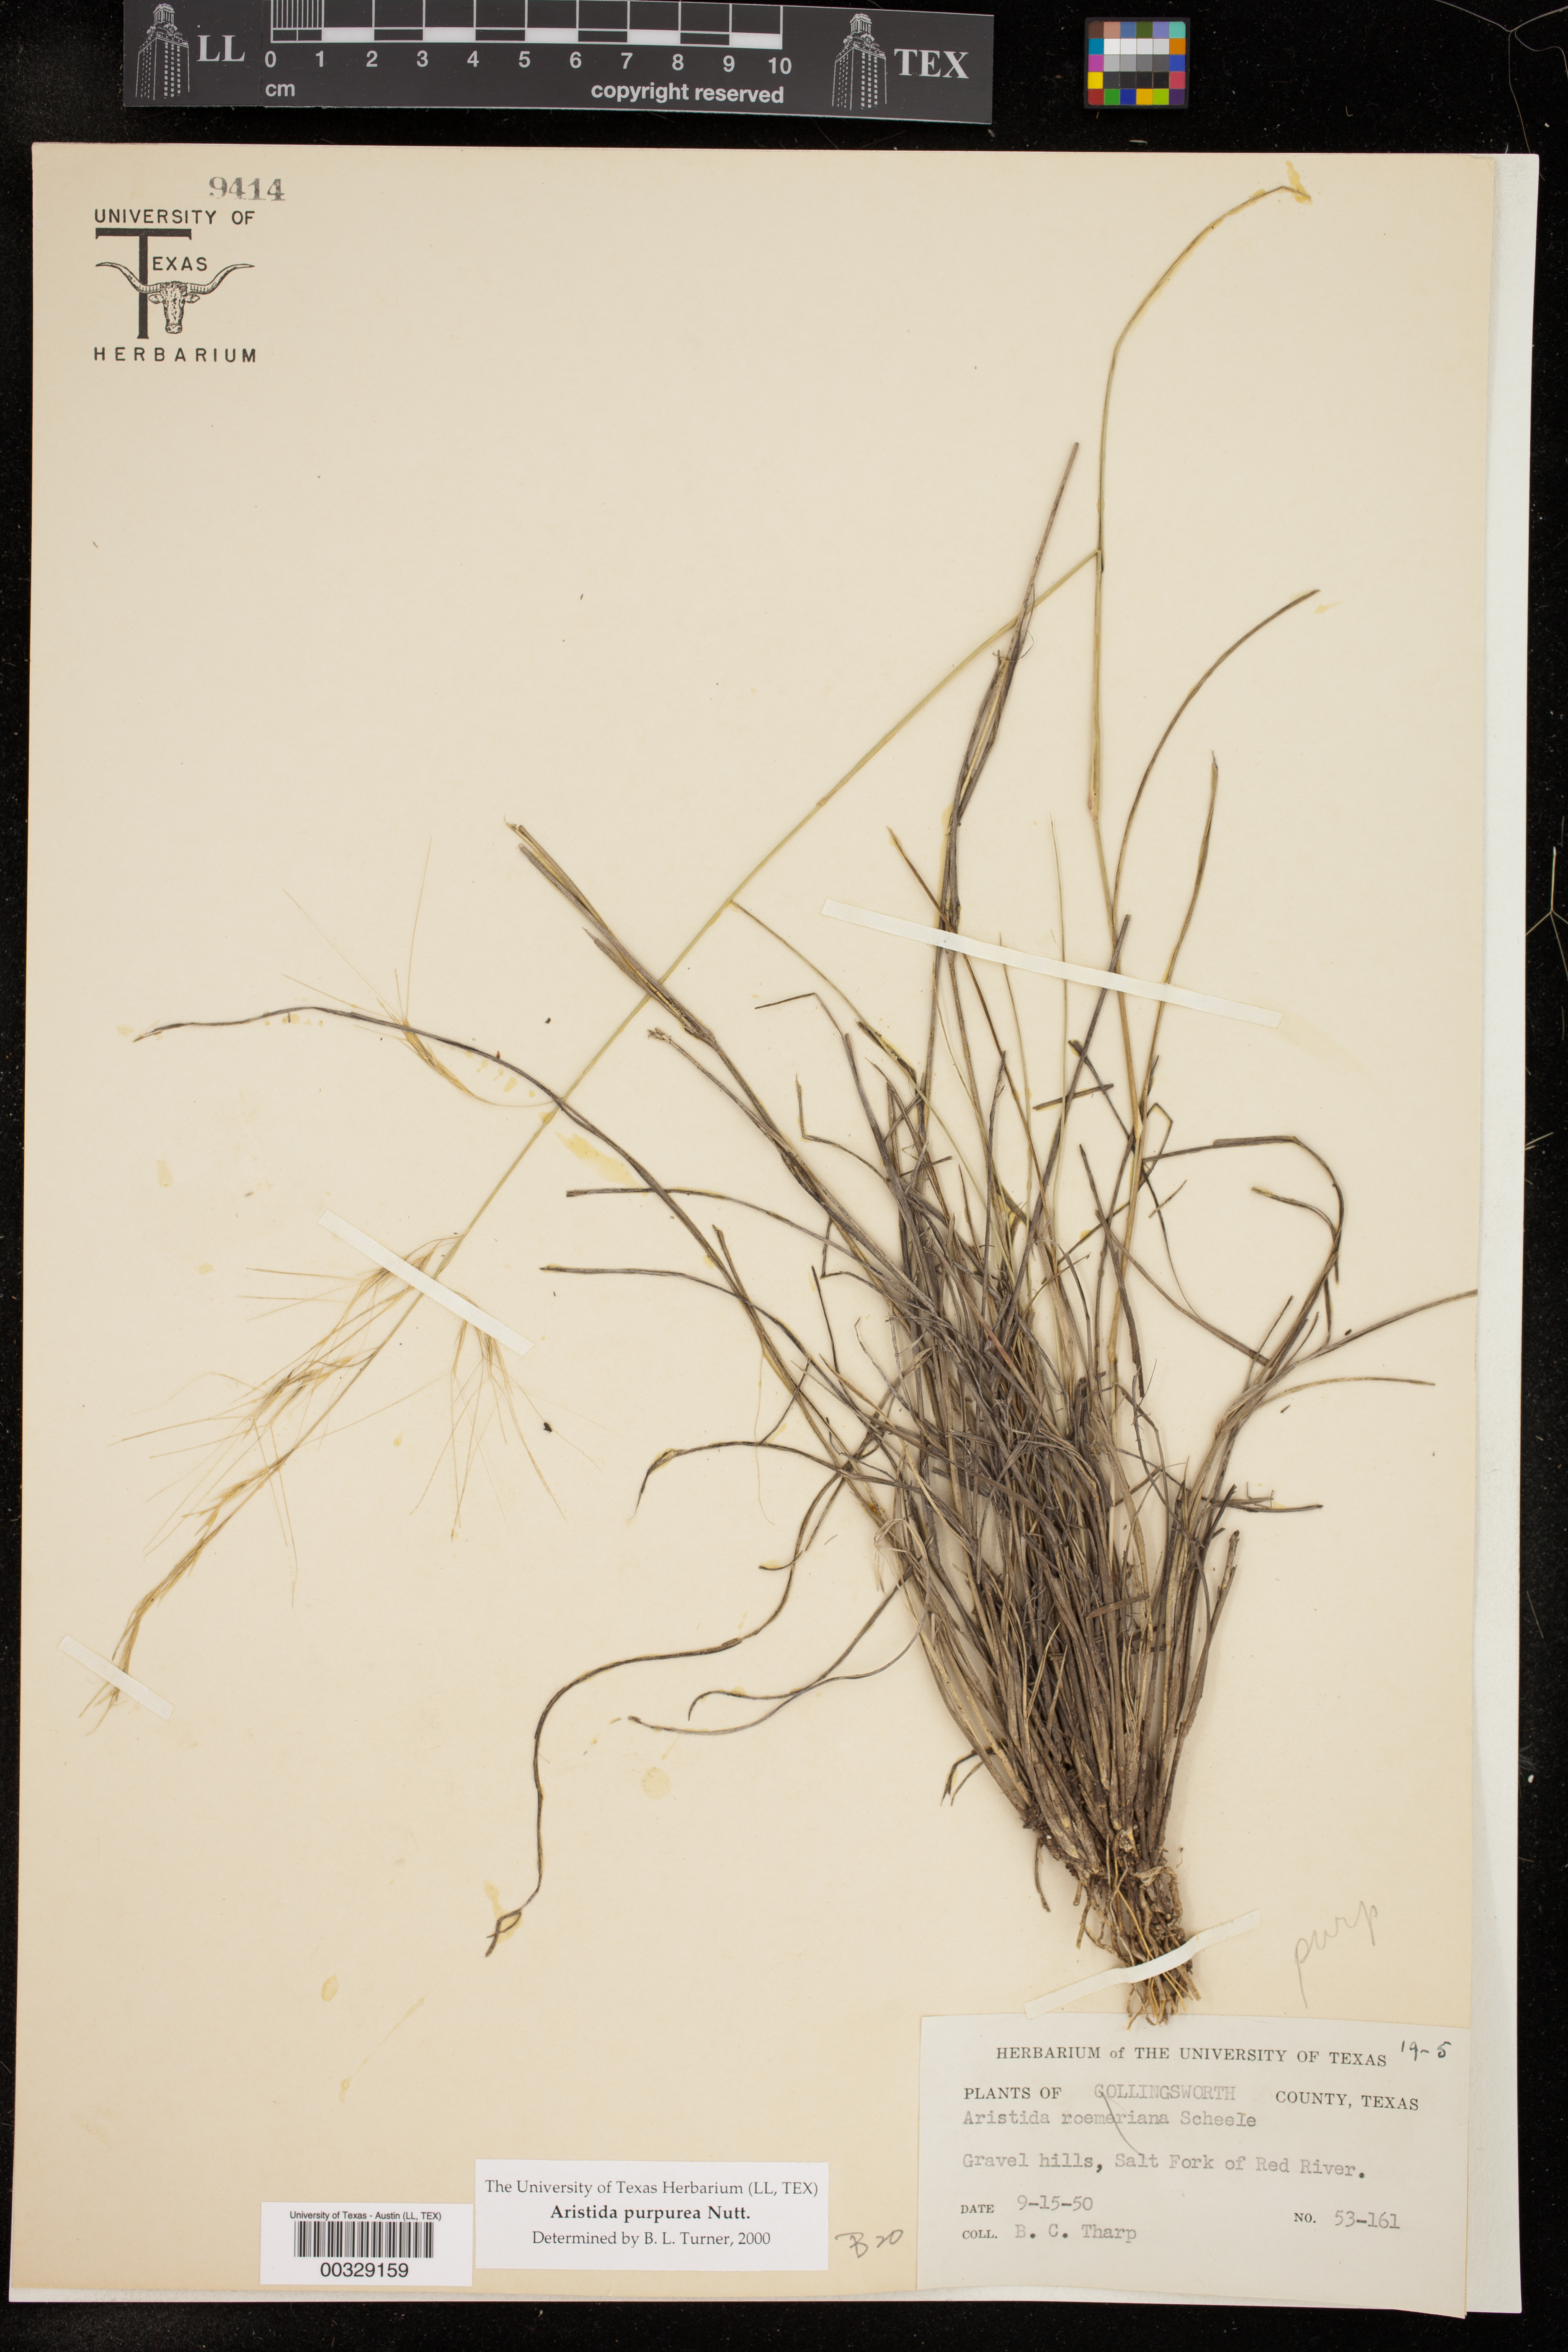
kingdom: Plantae
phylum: Tracheophyta
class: Liliopsida
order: Poales
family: Poaceae
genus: Aristida
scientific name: Aristida purpurea
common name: Purple threeawn
